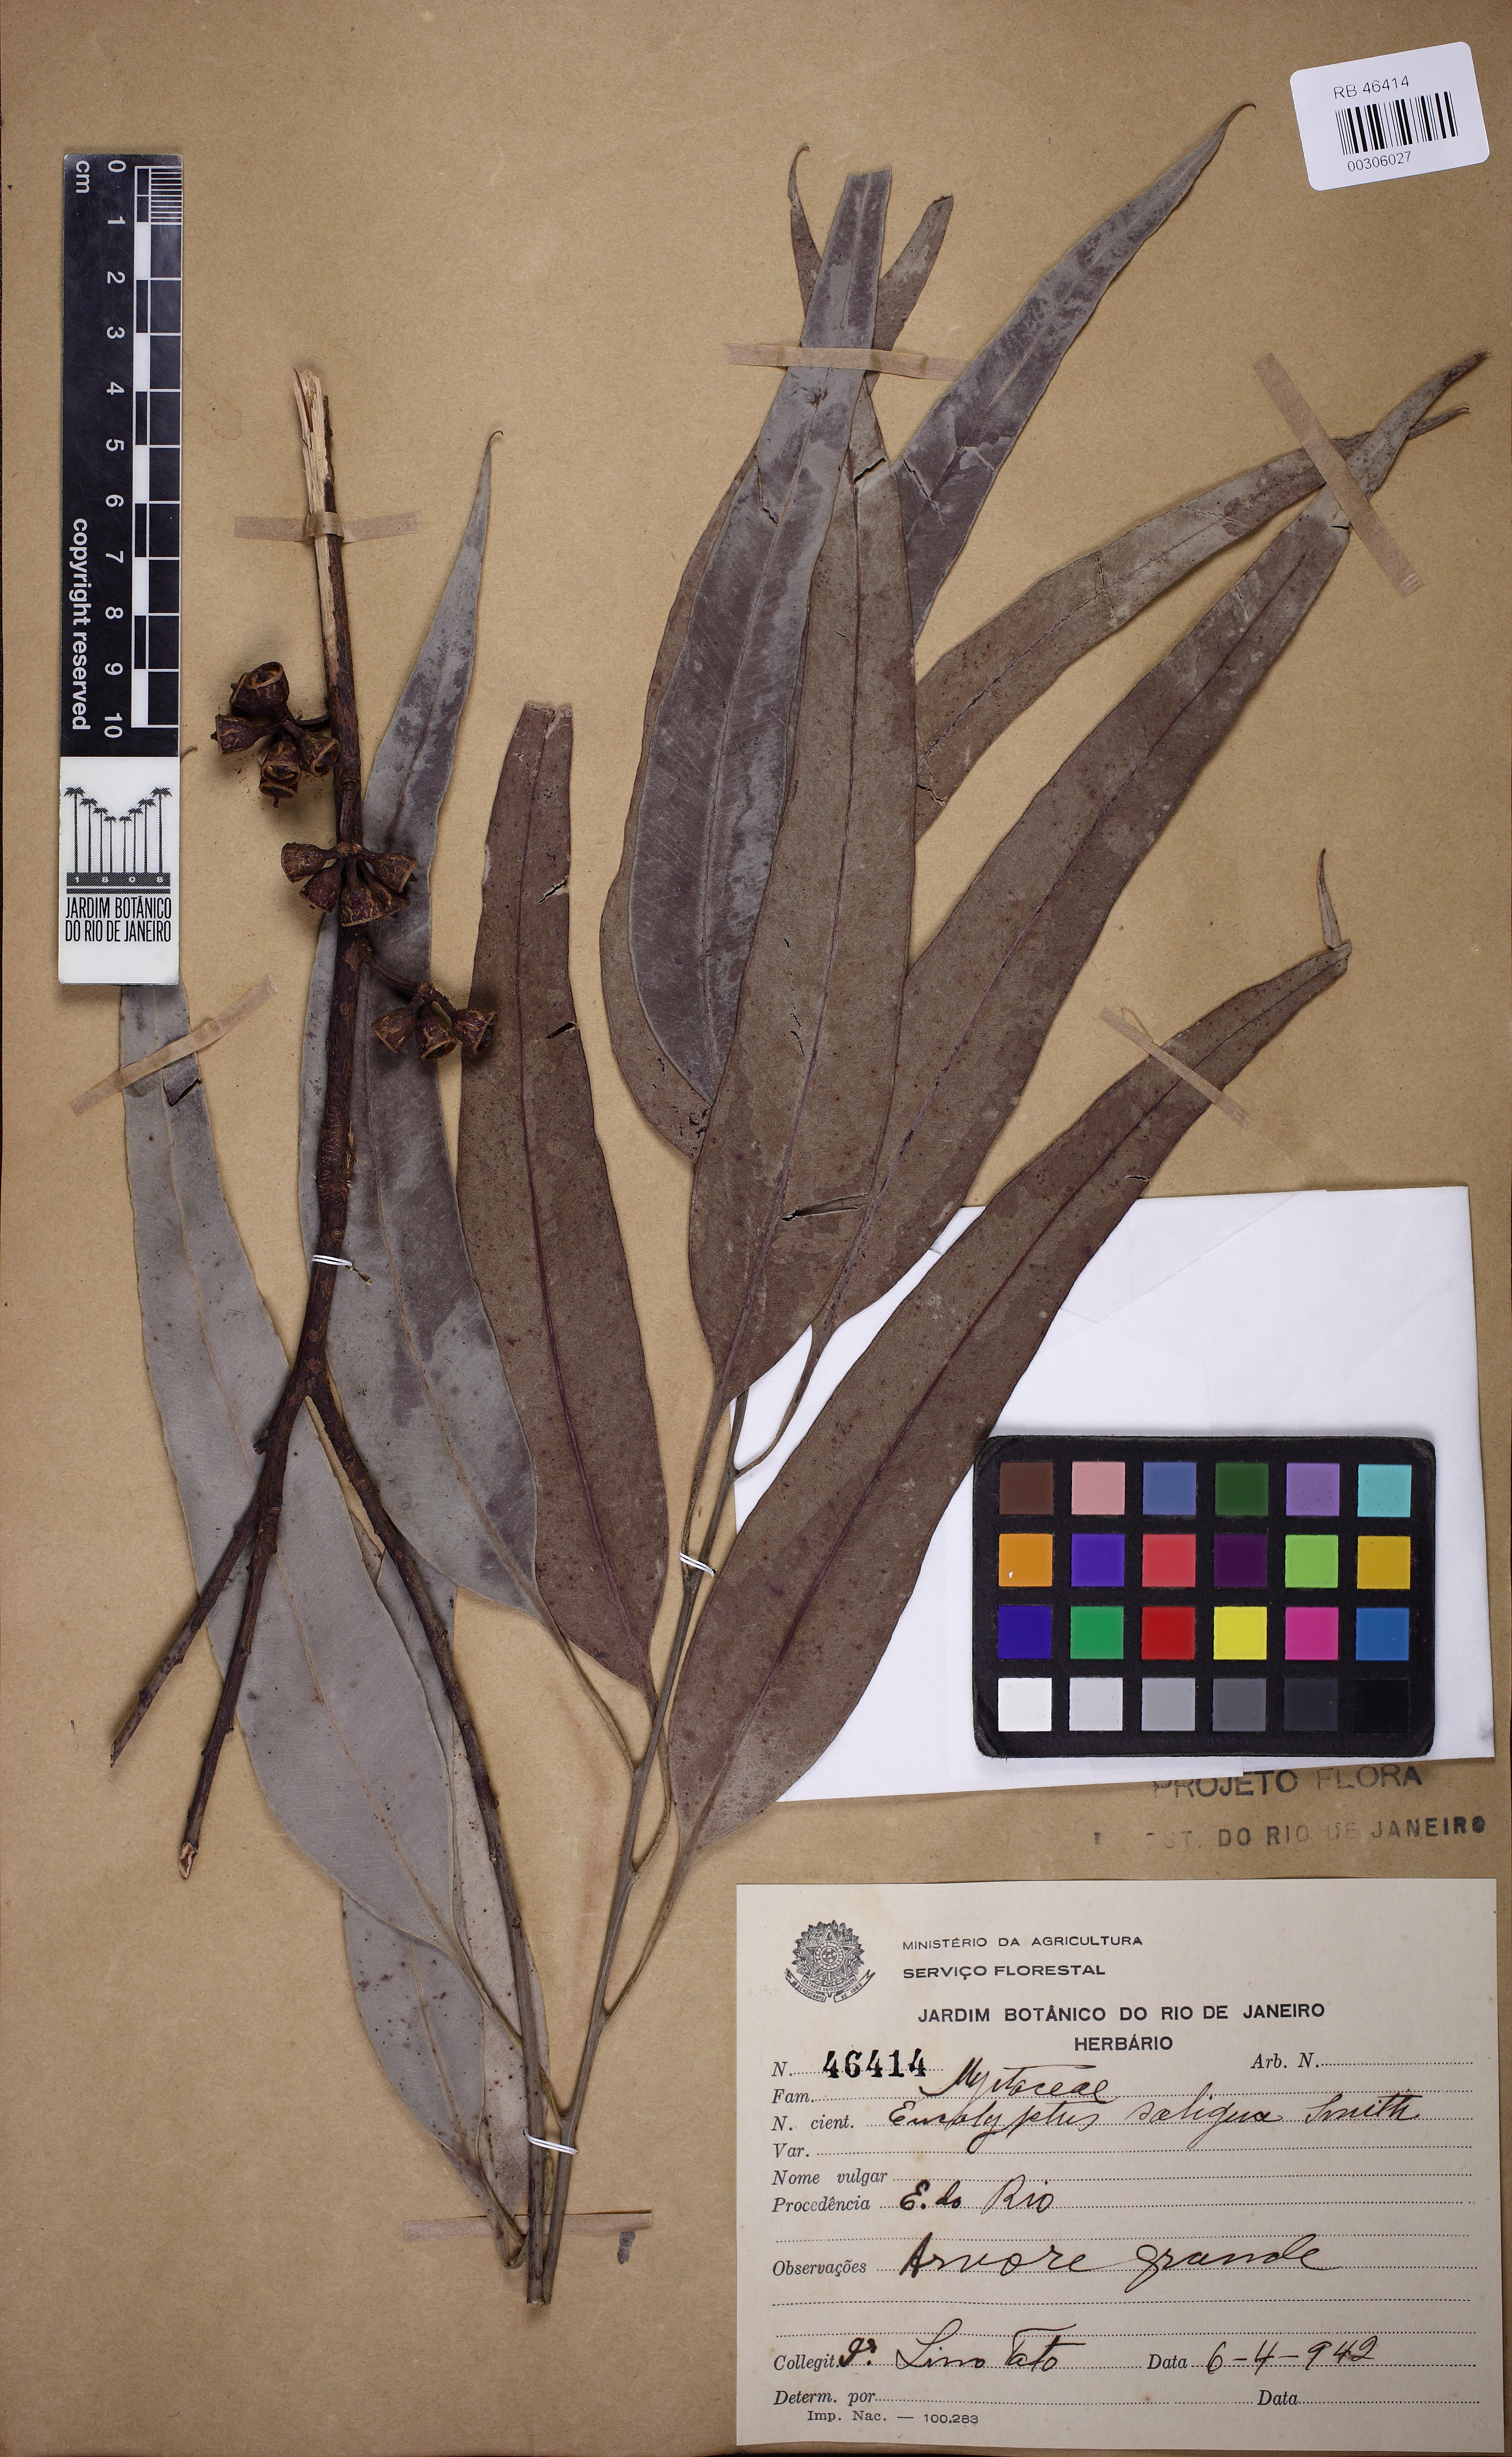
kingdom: Plantae
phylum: Tracheophyta
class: Magnoliopsida
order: Myrtales
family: Myrtaceae
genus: Eucalyptus
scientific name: Eucalyptus saligna
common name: Blue gum
